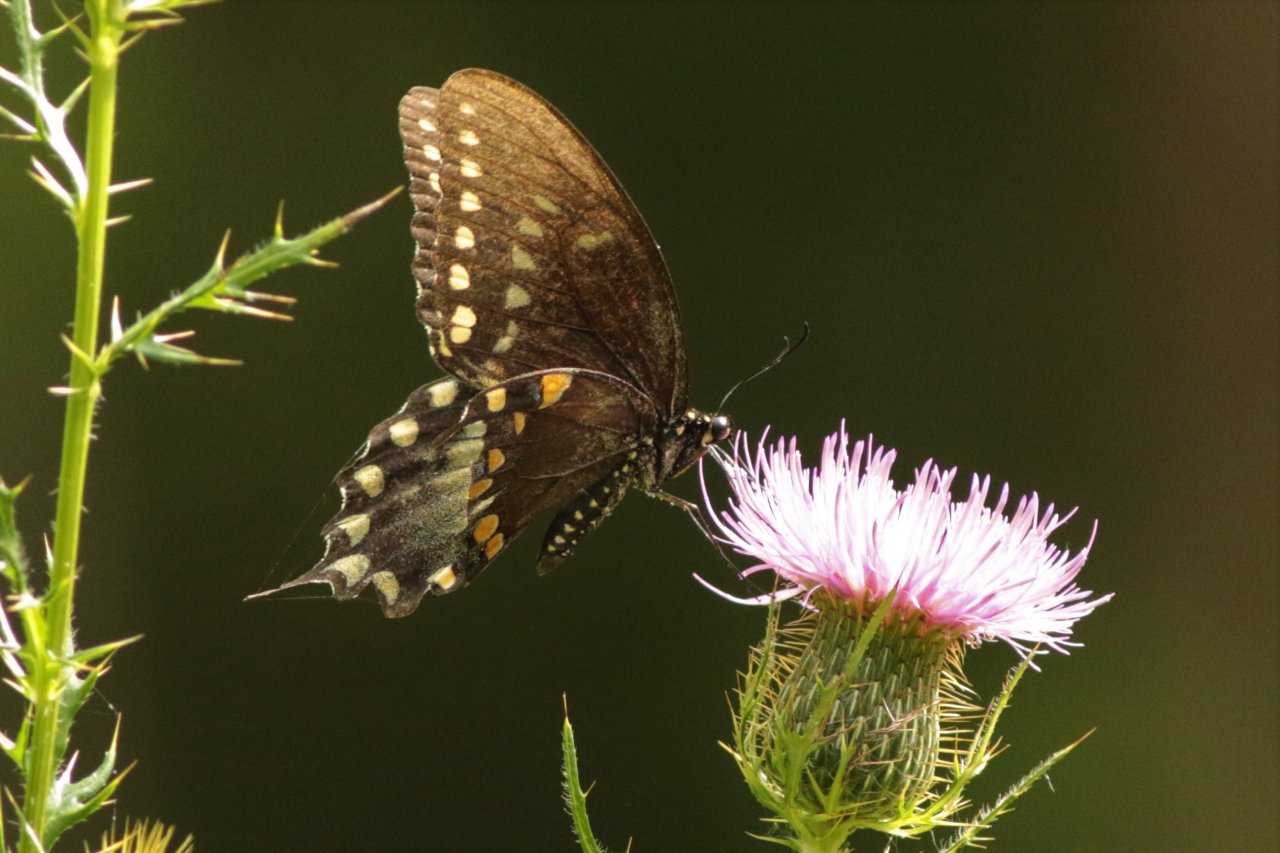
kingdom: Animalia
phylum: Arthropoda
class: Insecta
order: Lepidoptera
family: Papilionidae
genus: Pterourus
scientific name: Pterourus troilus
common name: Spicebush Swallowtail
